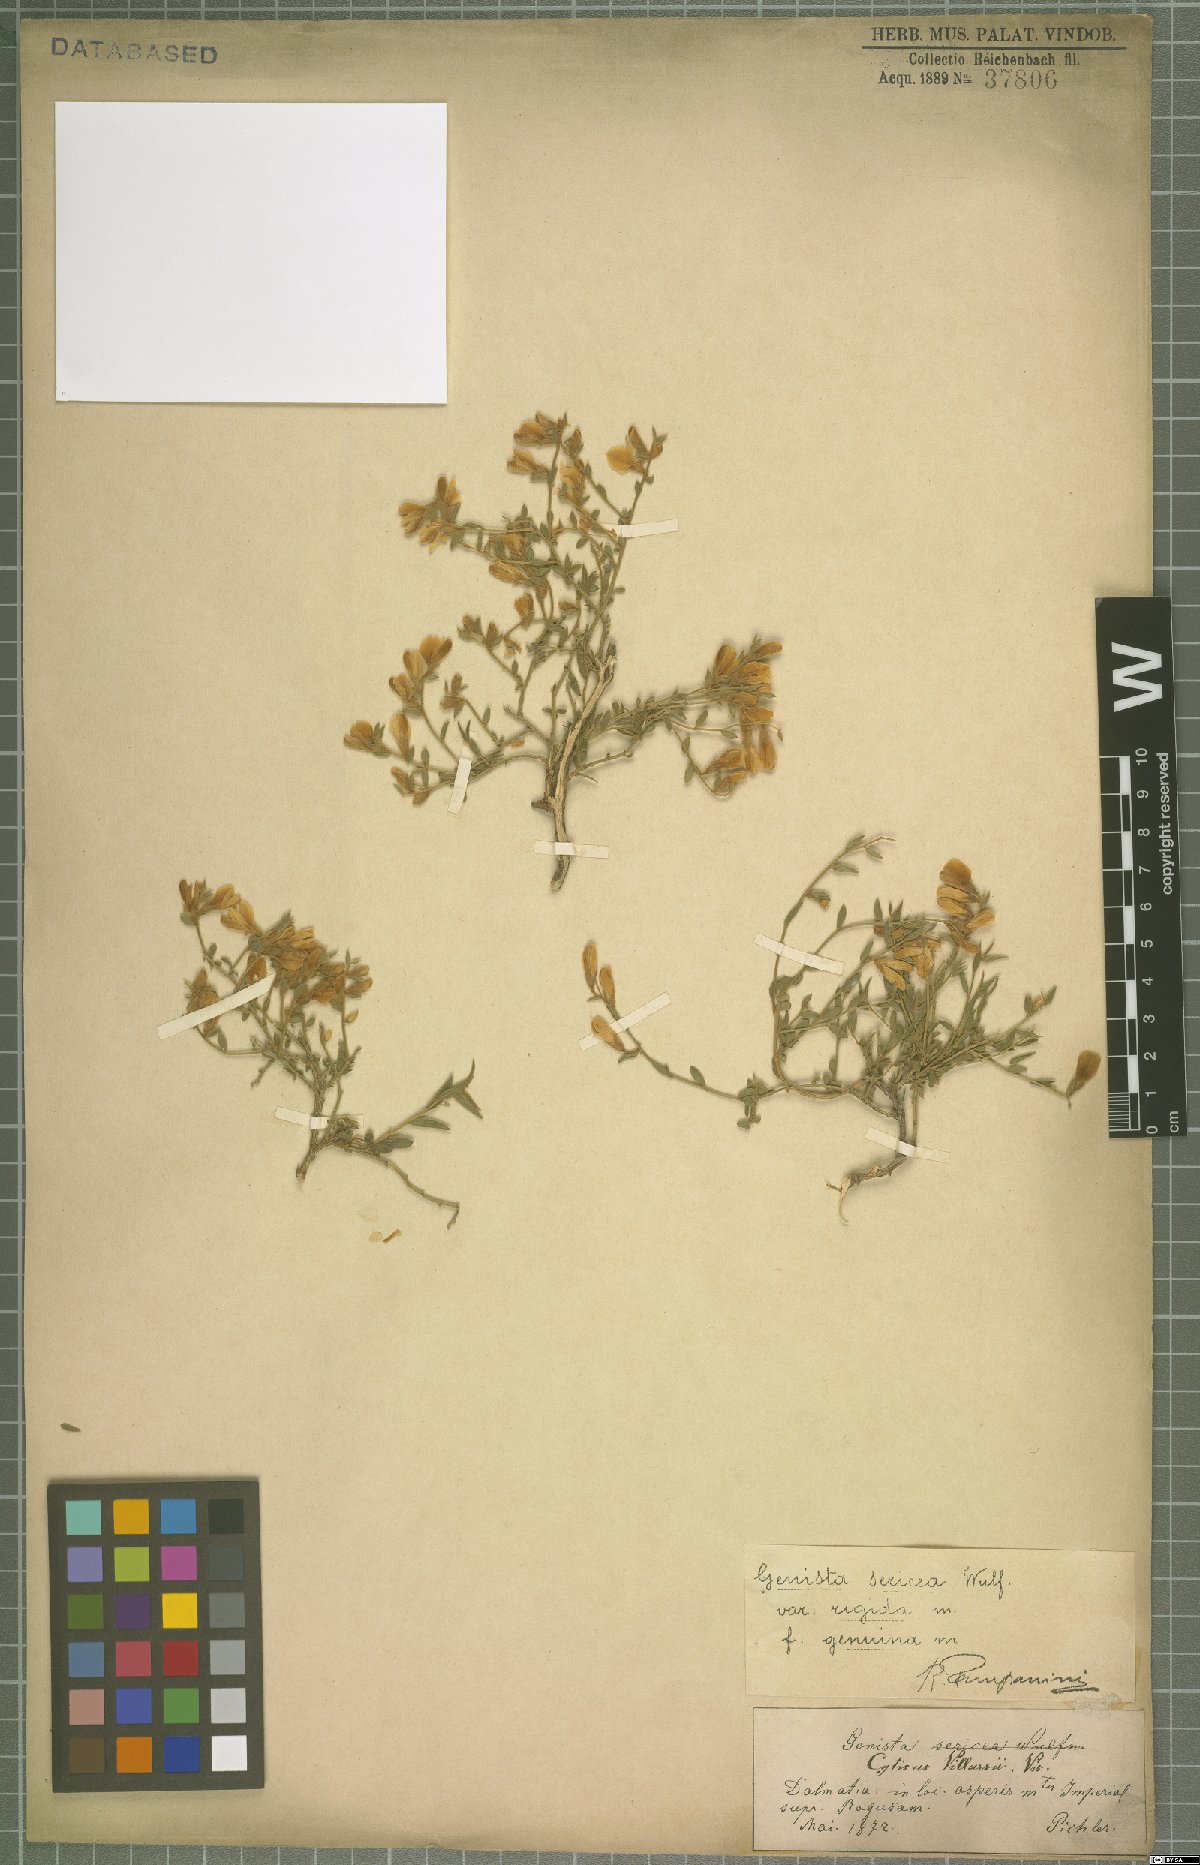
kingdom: Plantae
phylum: Tracheophyta
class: Magnoliopsida
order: Fabales
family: Fabaceae
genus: Genista
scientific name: Genista sericea
